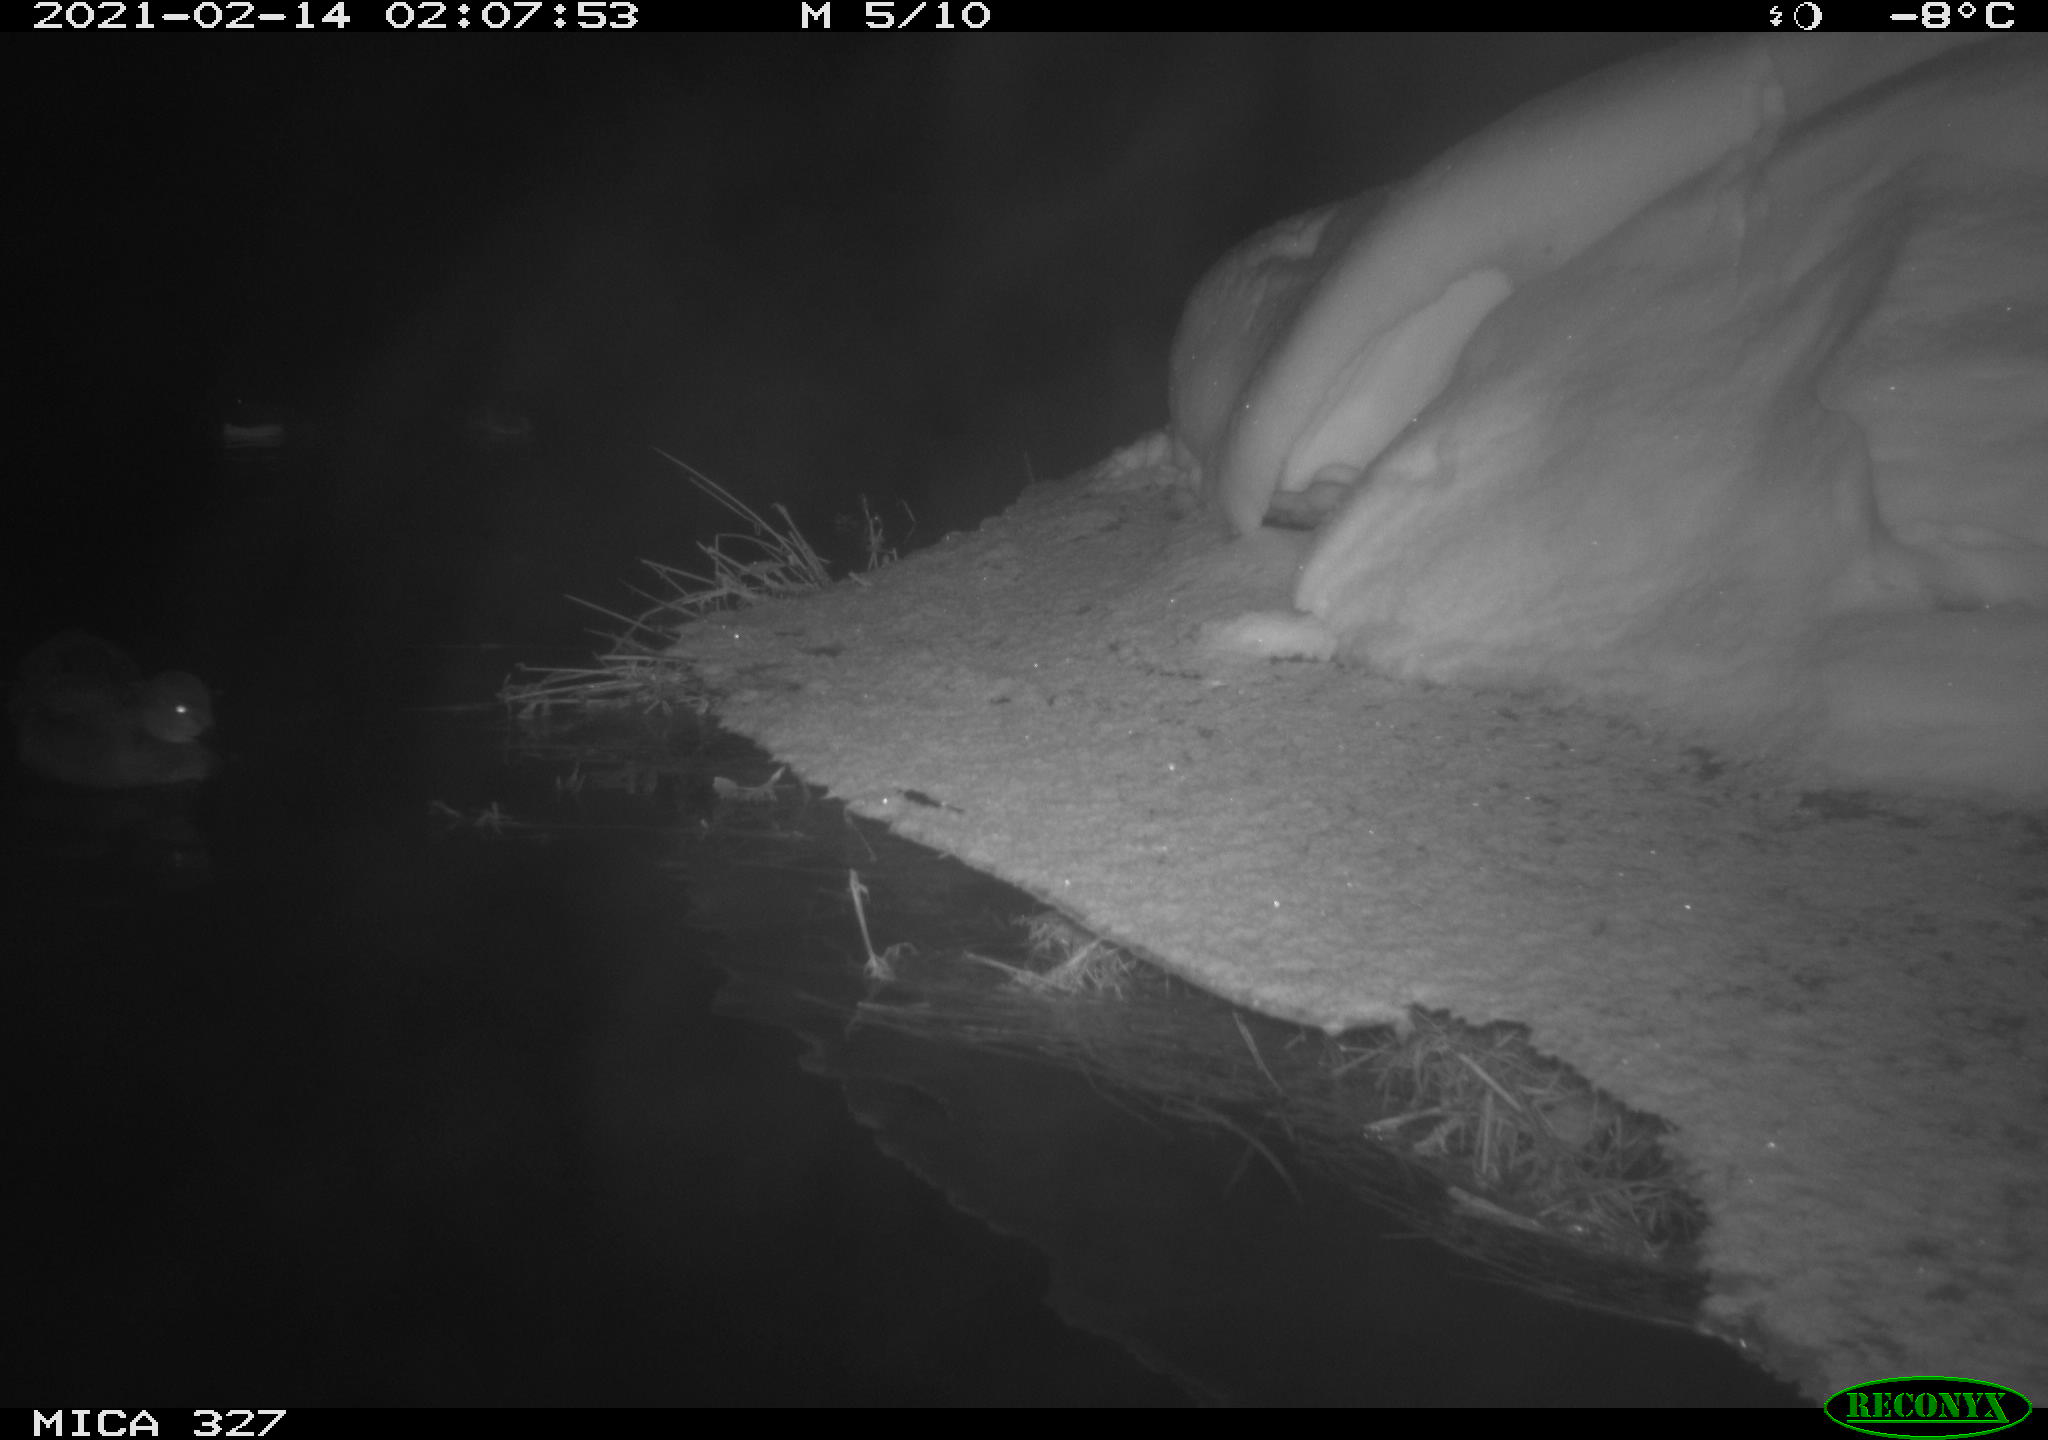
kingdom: Animalia
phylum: Chordata
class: Aves
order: Anseriformes
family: Anatidae
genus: Anas
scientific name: Anas
